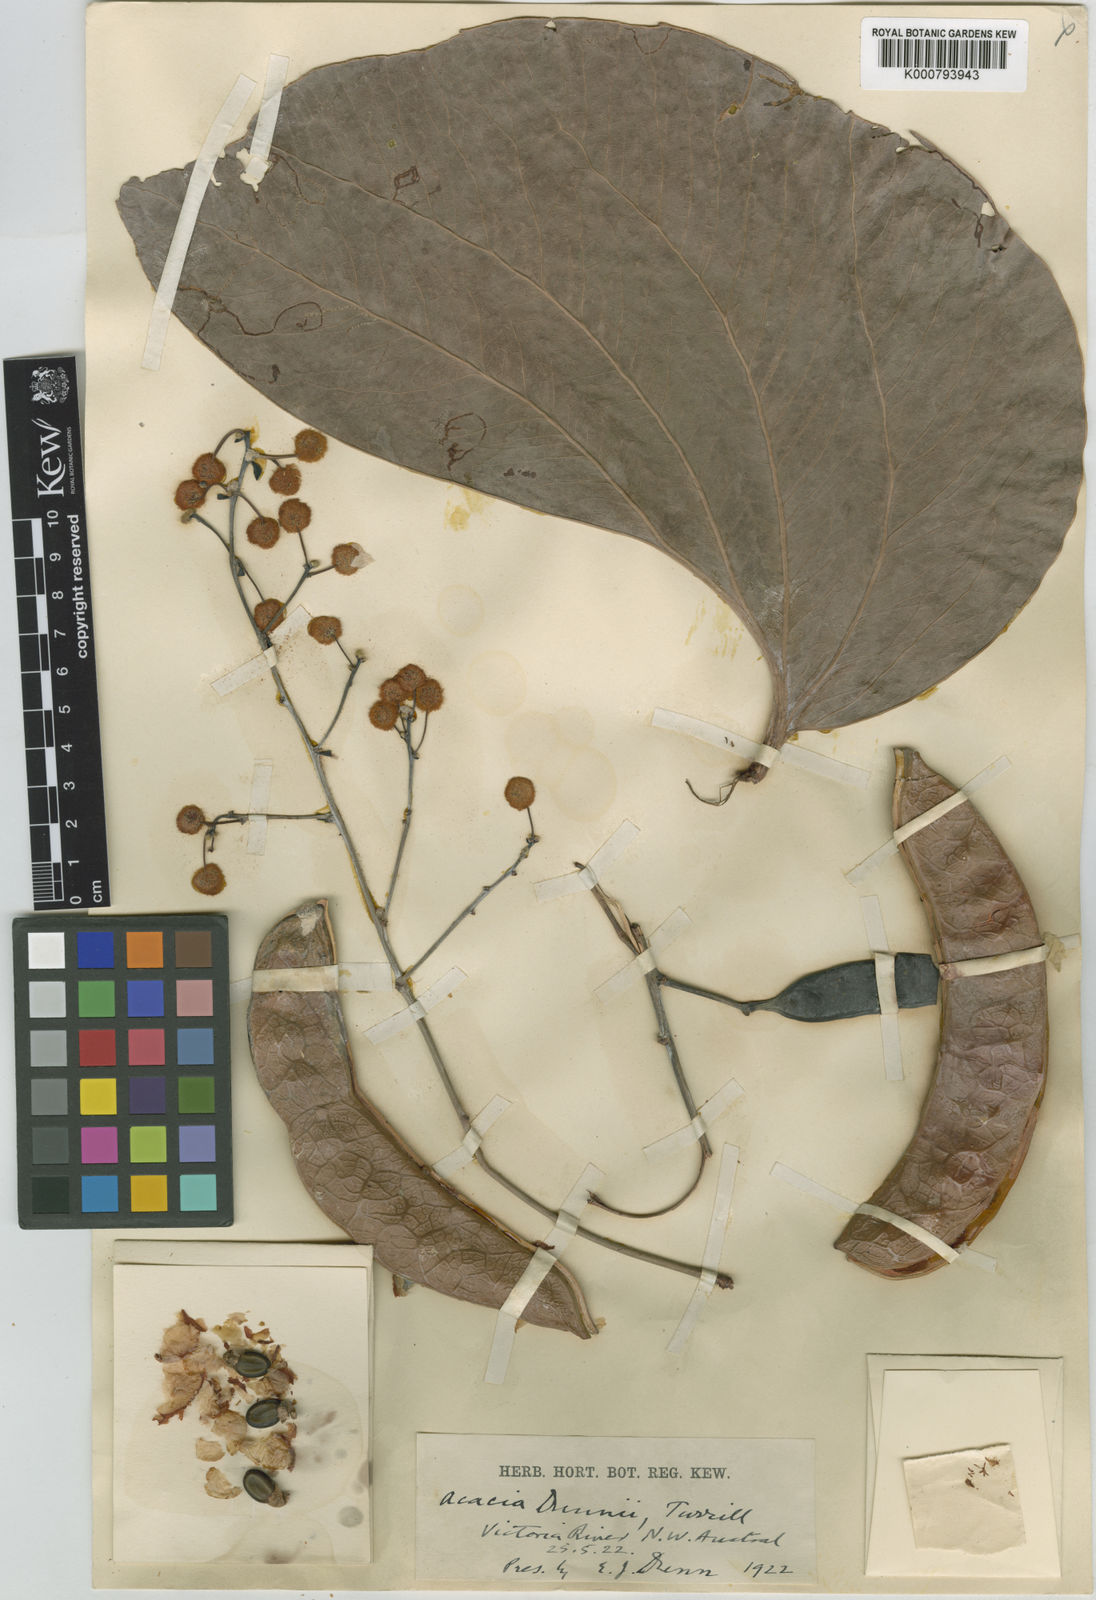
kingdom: Plantae
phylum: Tracheophyta
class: Magnoliopsida
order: Fabales
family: Fabaceae
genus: Acacia
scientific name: Acacia dunnii
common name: Elephant's-ear wattle
